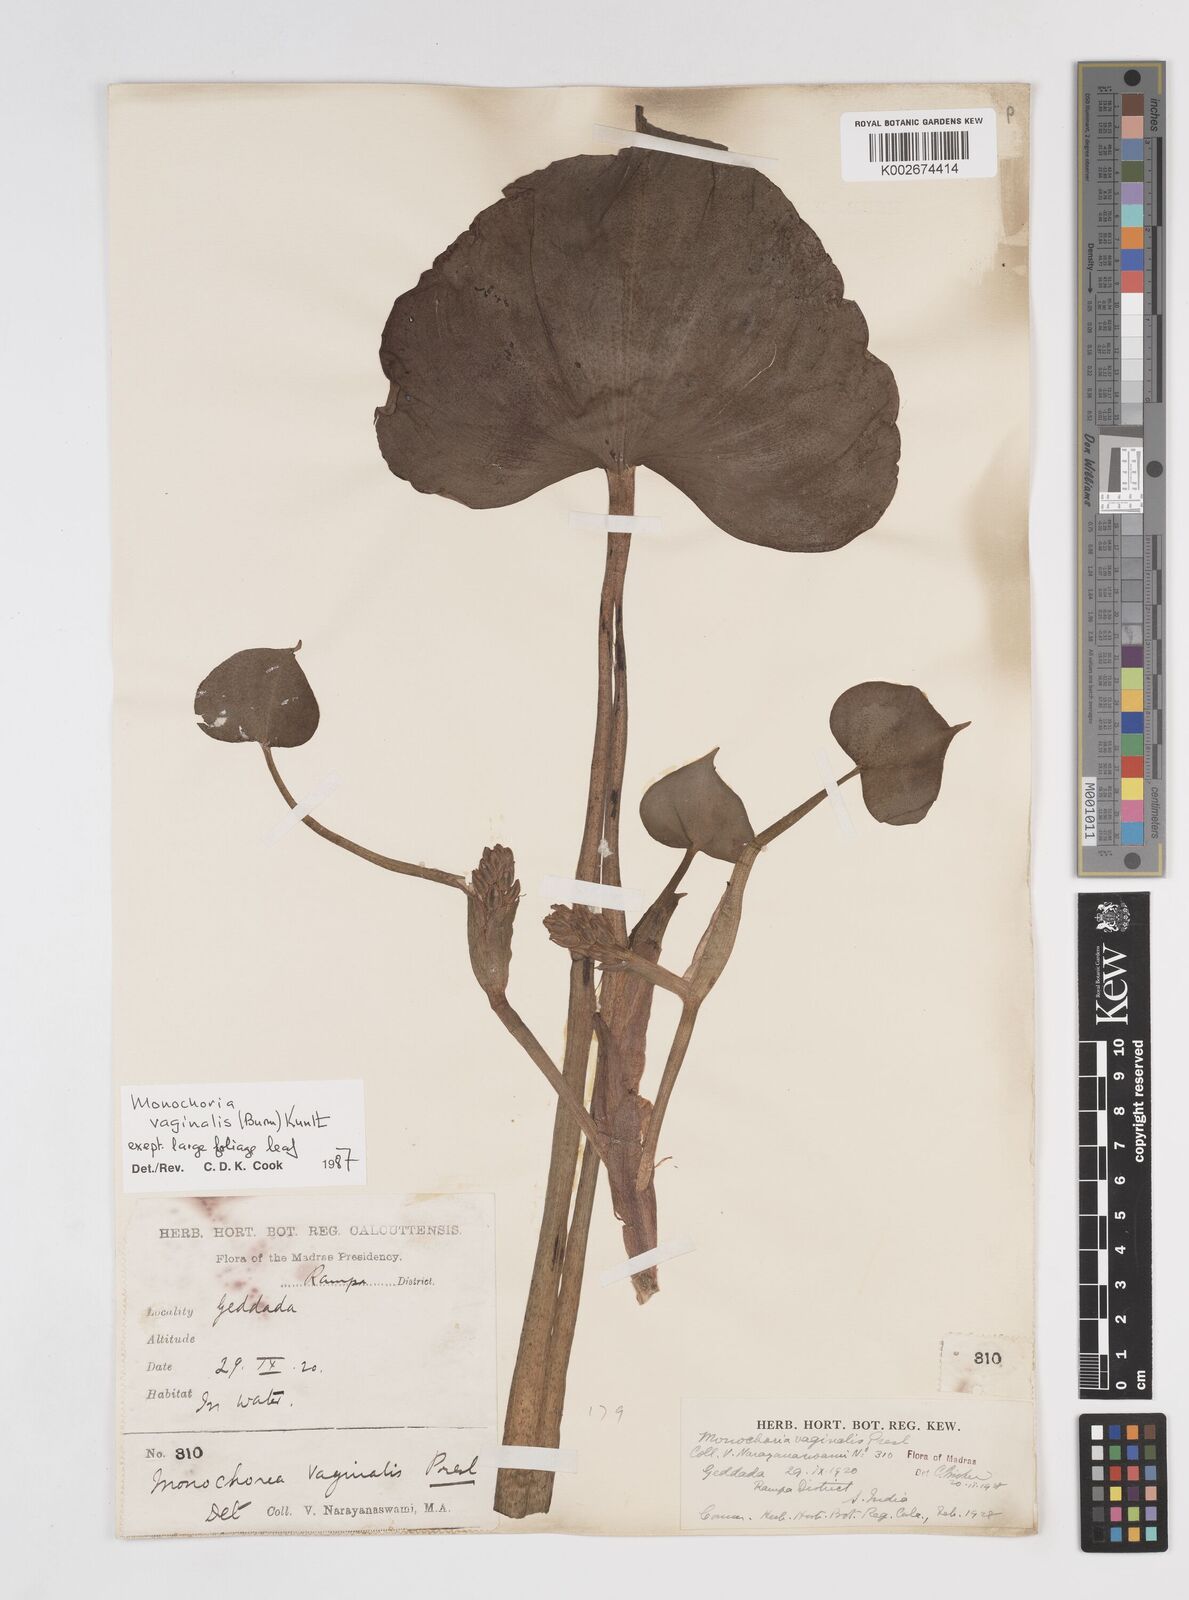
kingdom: Plantae
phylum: Tracheophyta
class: Liliopsida
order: Commelinales
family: Pontederiaceae
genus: Pontederia
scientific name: Pontederia vaginalis
